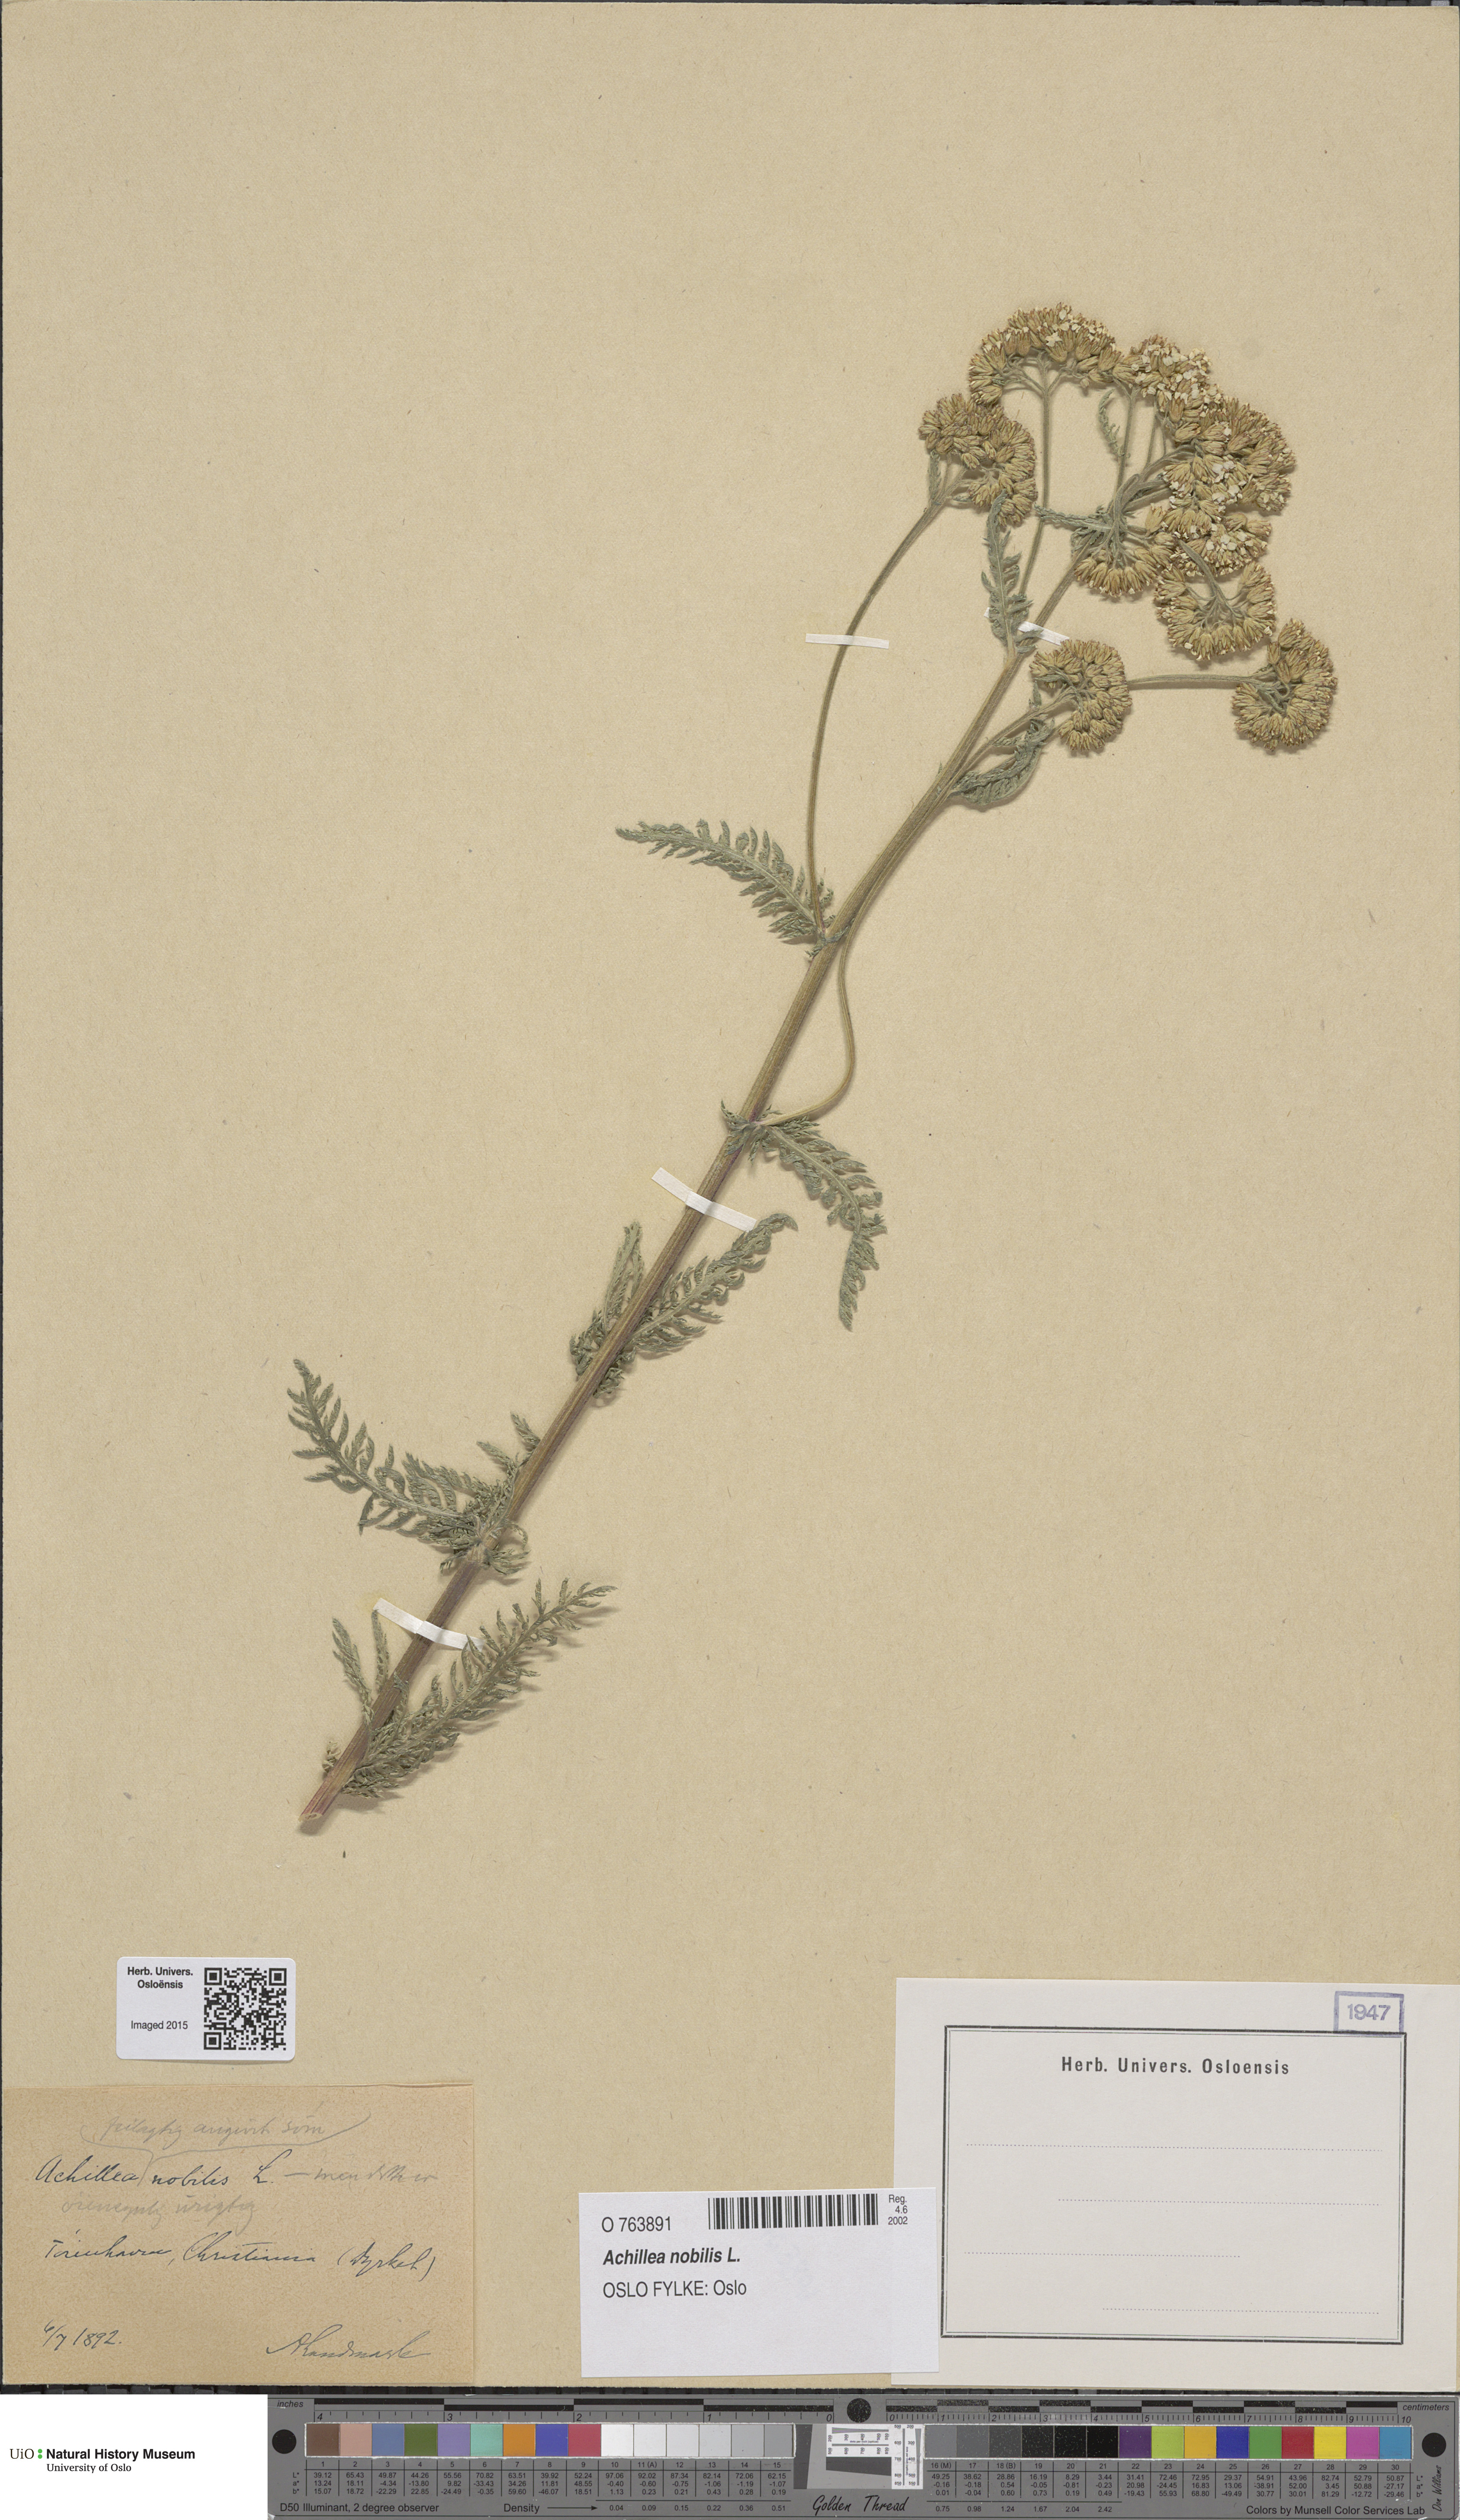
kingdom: Plantae
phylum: Tracheophyta
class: Magnoliopsida
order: Asterales
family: Asteraceae
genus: Achillea
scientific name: Achillea nobilis
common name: Noble yarrow
